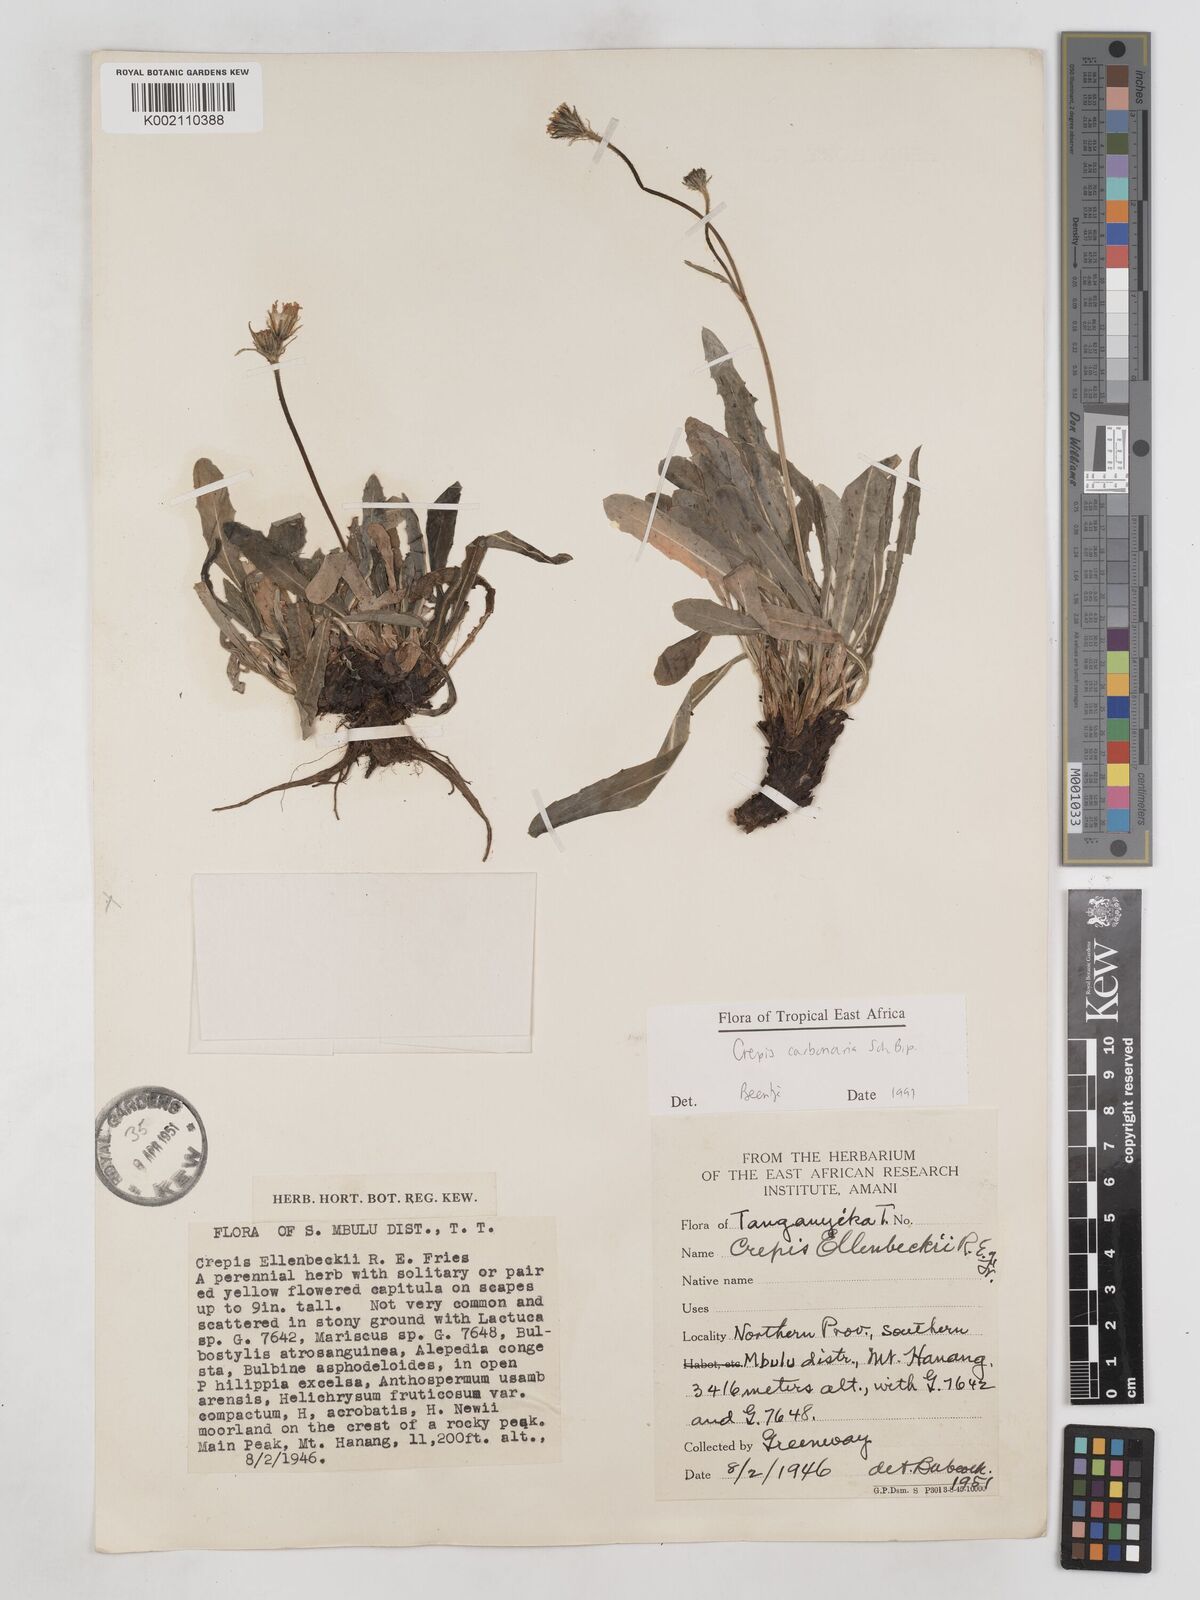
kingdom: Plantae
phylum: Tracheophyta
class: Magnoliopsida
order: Asterales
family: Asteraceae
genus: Crepis
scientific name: Crepis carbonaria
